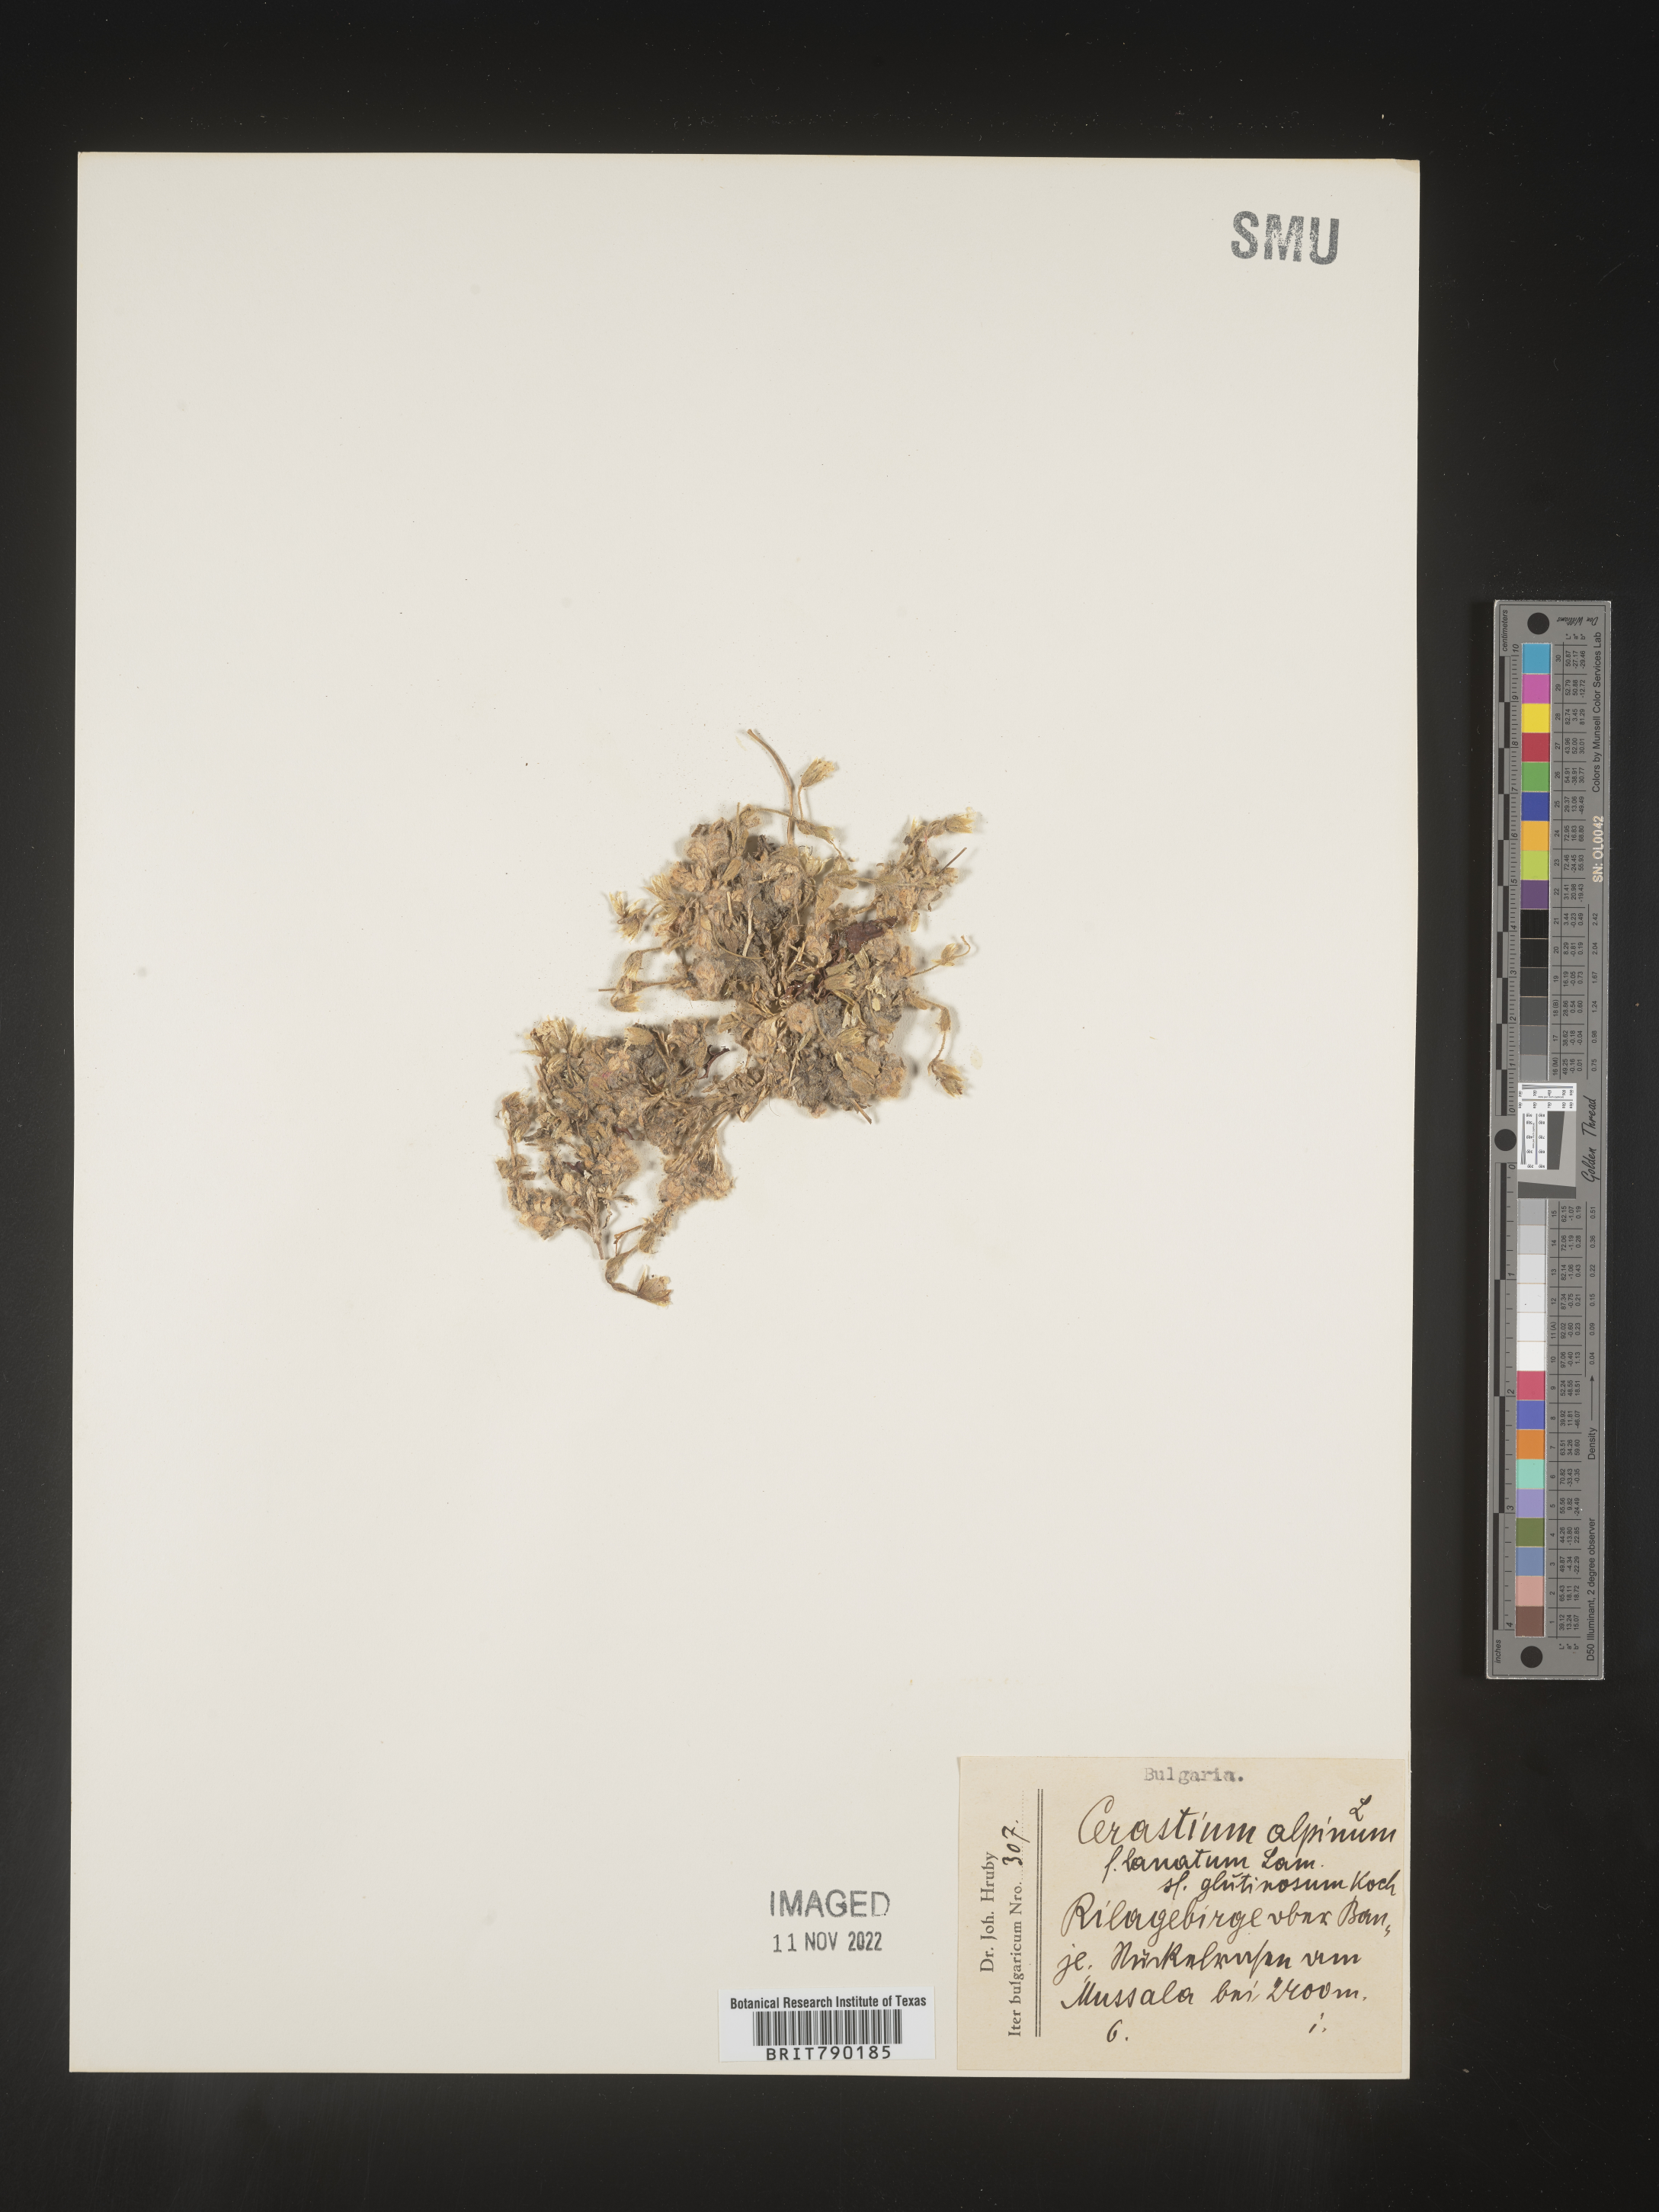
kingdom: Plantae
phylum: Tracheophyta
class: Magnoliopsida
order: Caryophyllales
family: Caryophyllaceae
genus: Cerastium
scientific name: Cerastium
